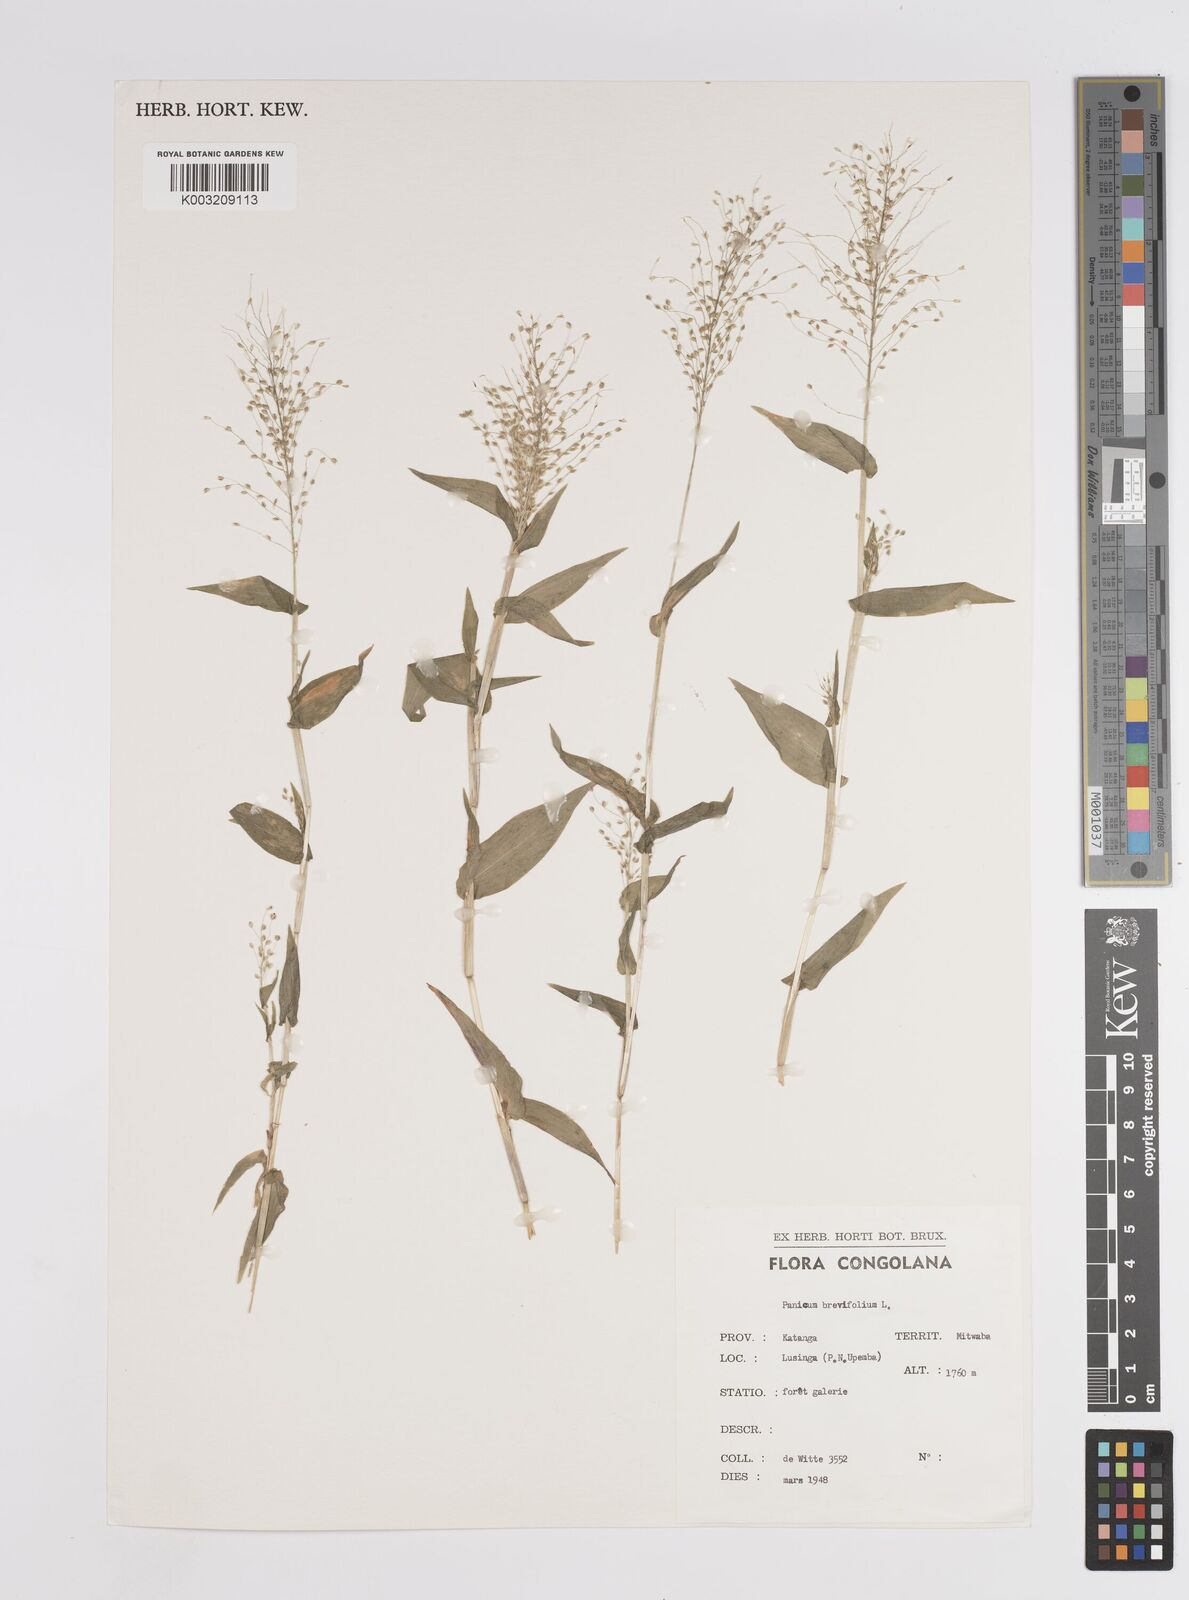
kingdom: Plantae
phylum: Tracheophyta
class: Liliopsida
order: Poales
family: Poaceae
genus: Panicum
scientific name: Panicum brevifolium
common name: Shortleaf panic grass
